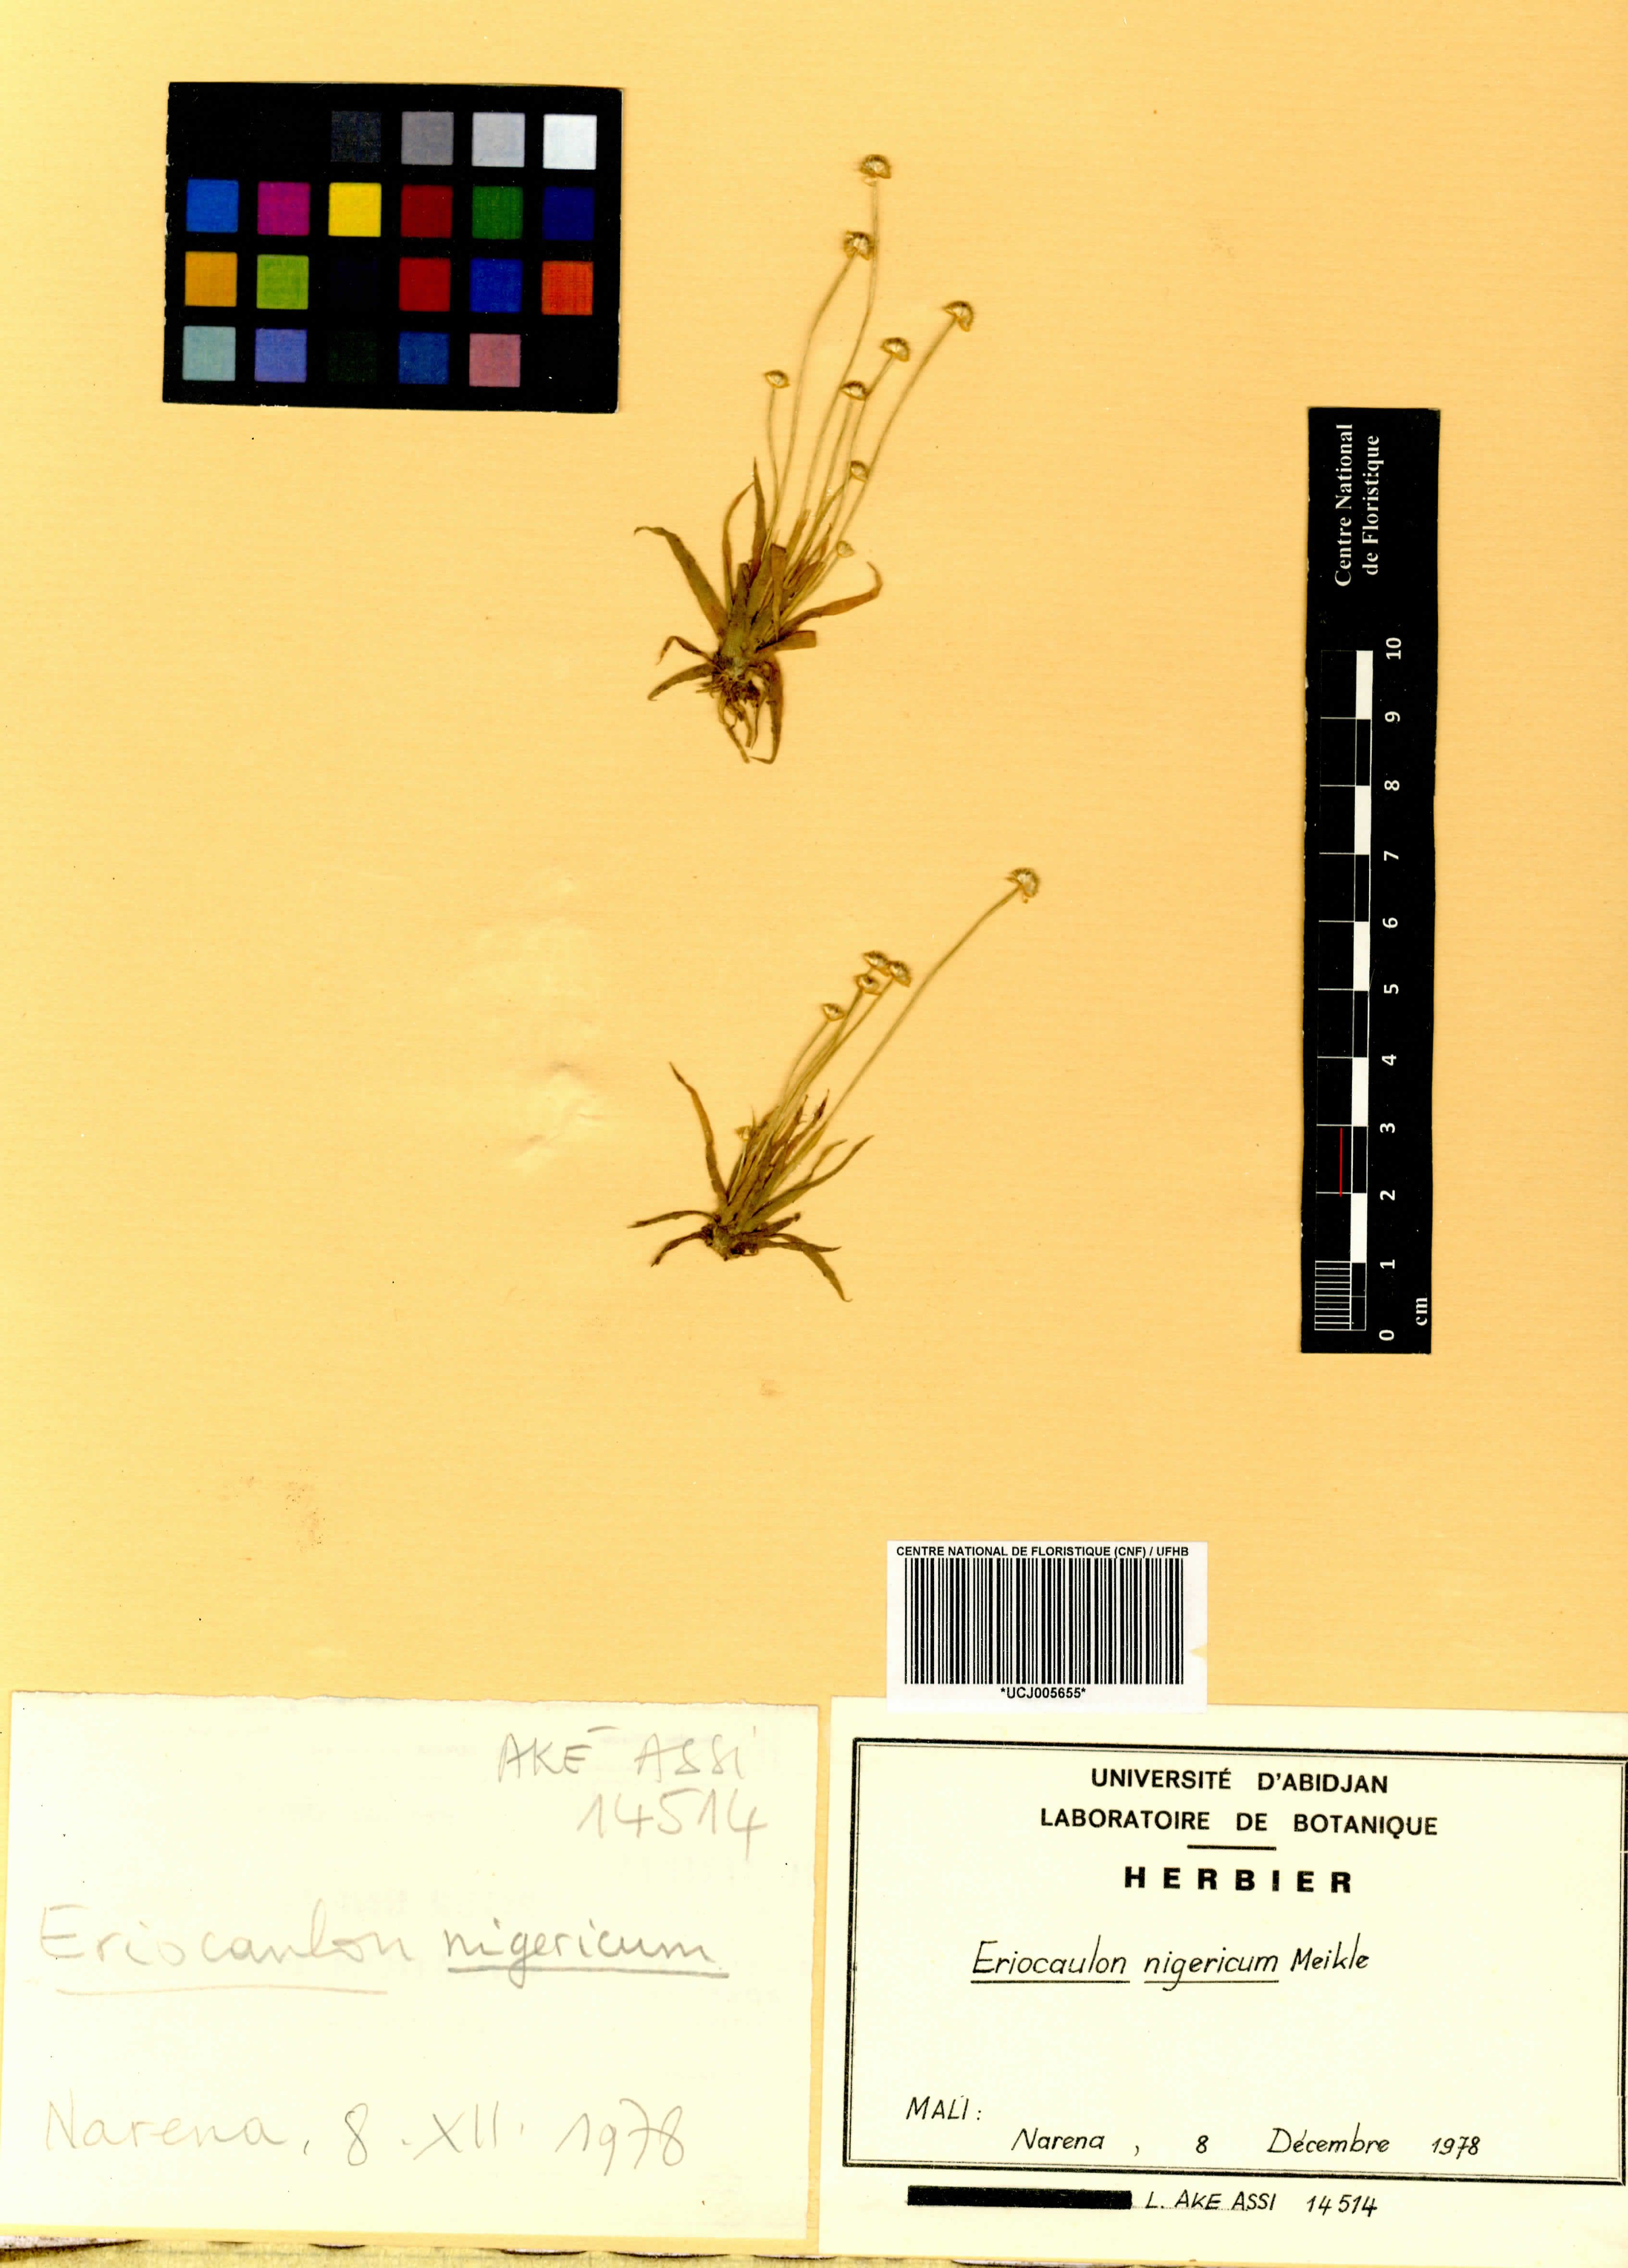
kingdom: Plantae
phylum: Tracheophyta
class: Liliopsida
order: Poales
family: Eriocaulaceae
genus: Eriocaulon
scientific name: Eriocaulon nigericum
